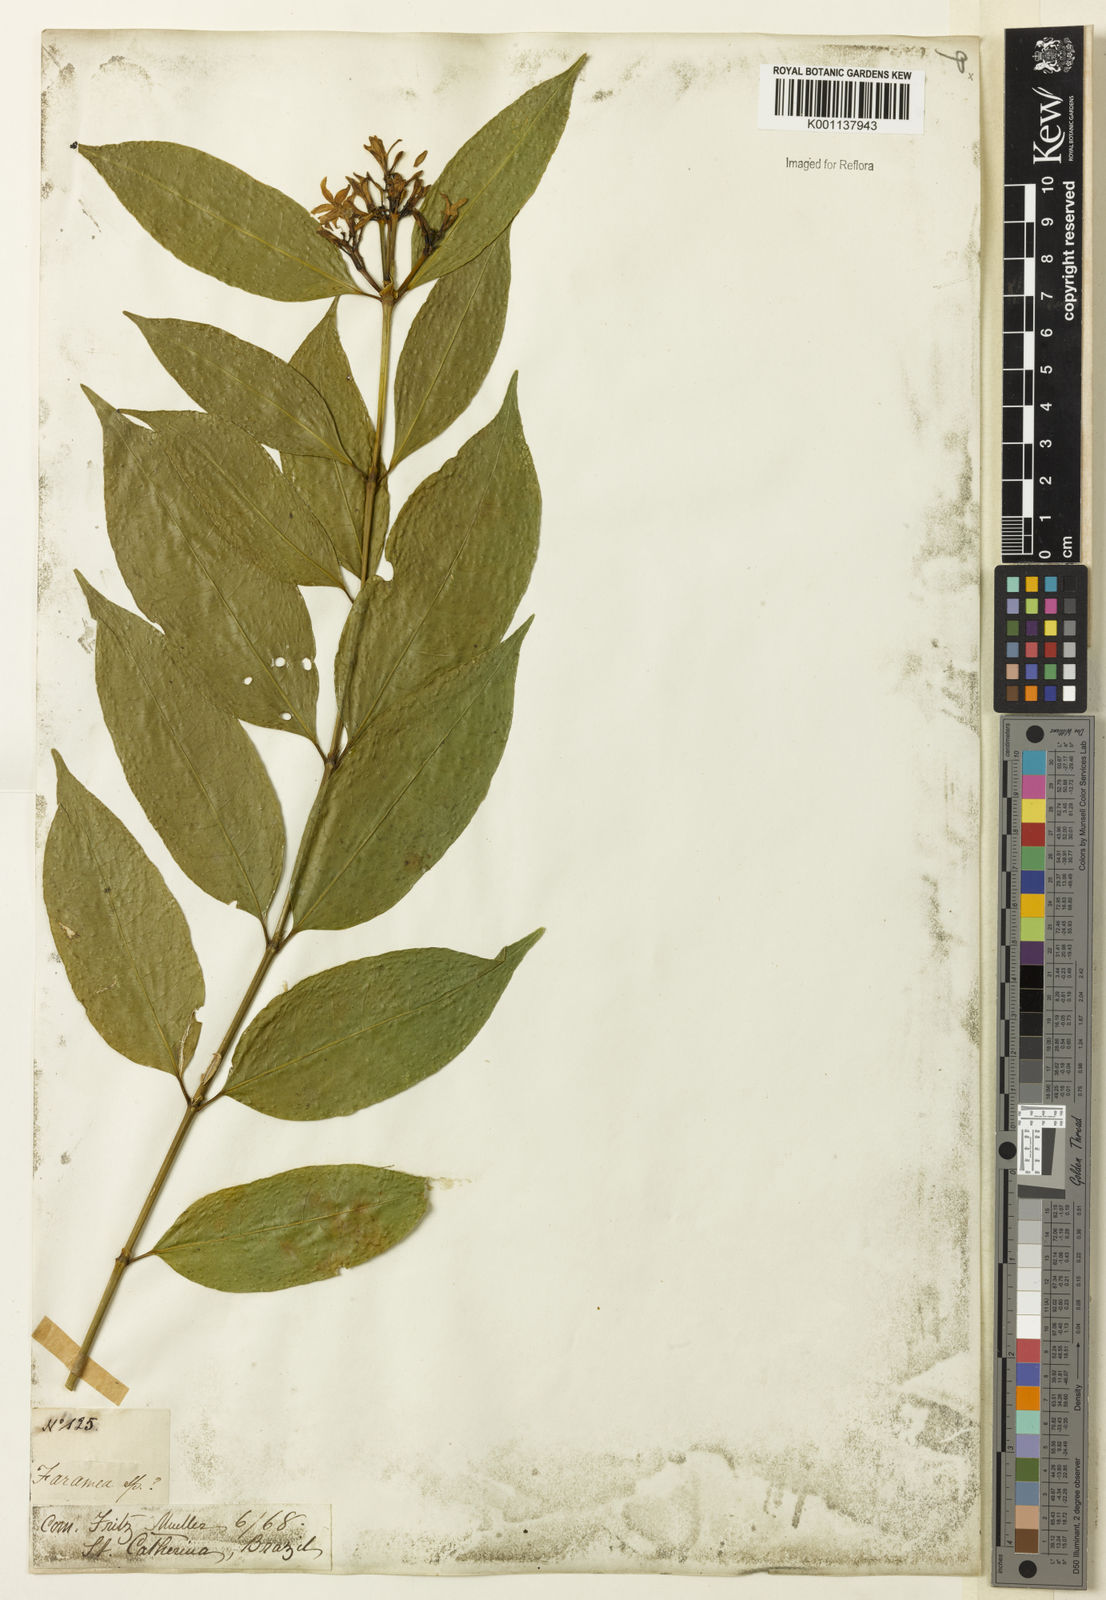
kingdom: Plantae
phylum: Tracheophyta
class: Magnoliopsida
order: Gentianales
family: Rubiaceae
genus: Faramea
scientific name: Faramea multiflora
